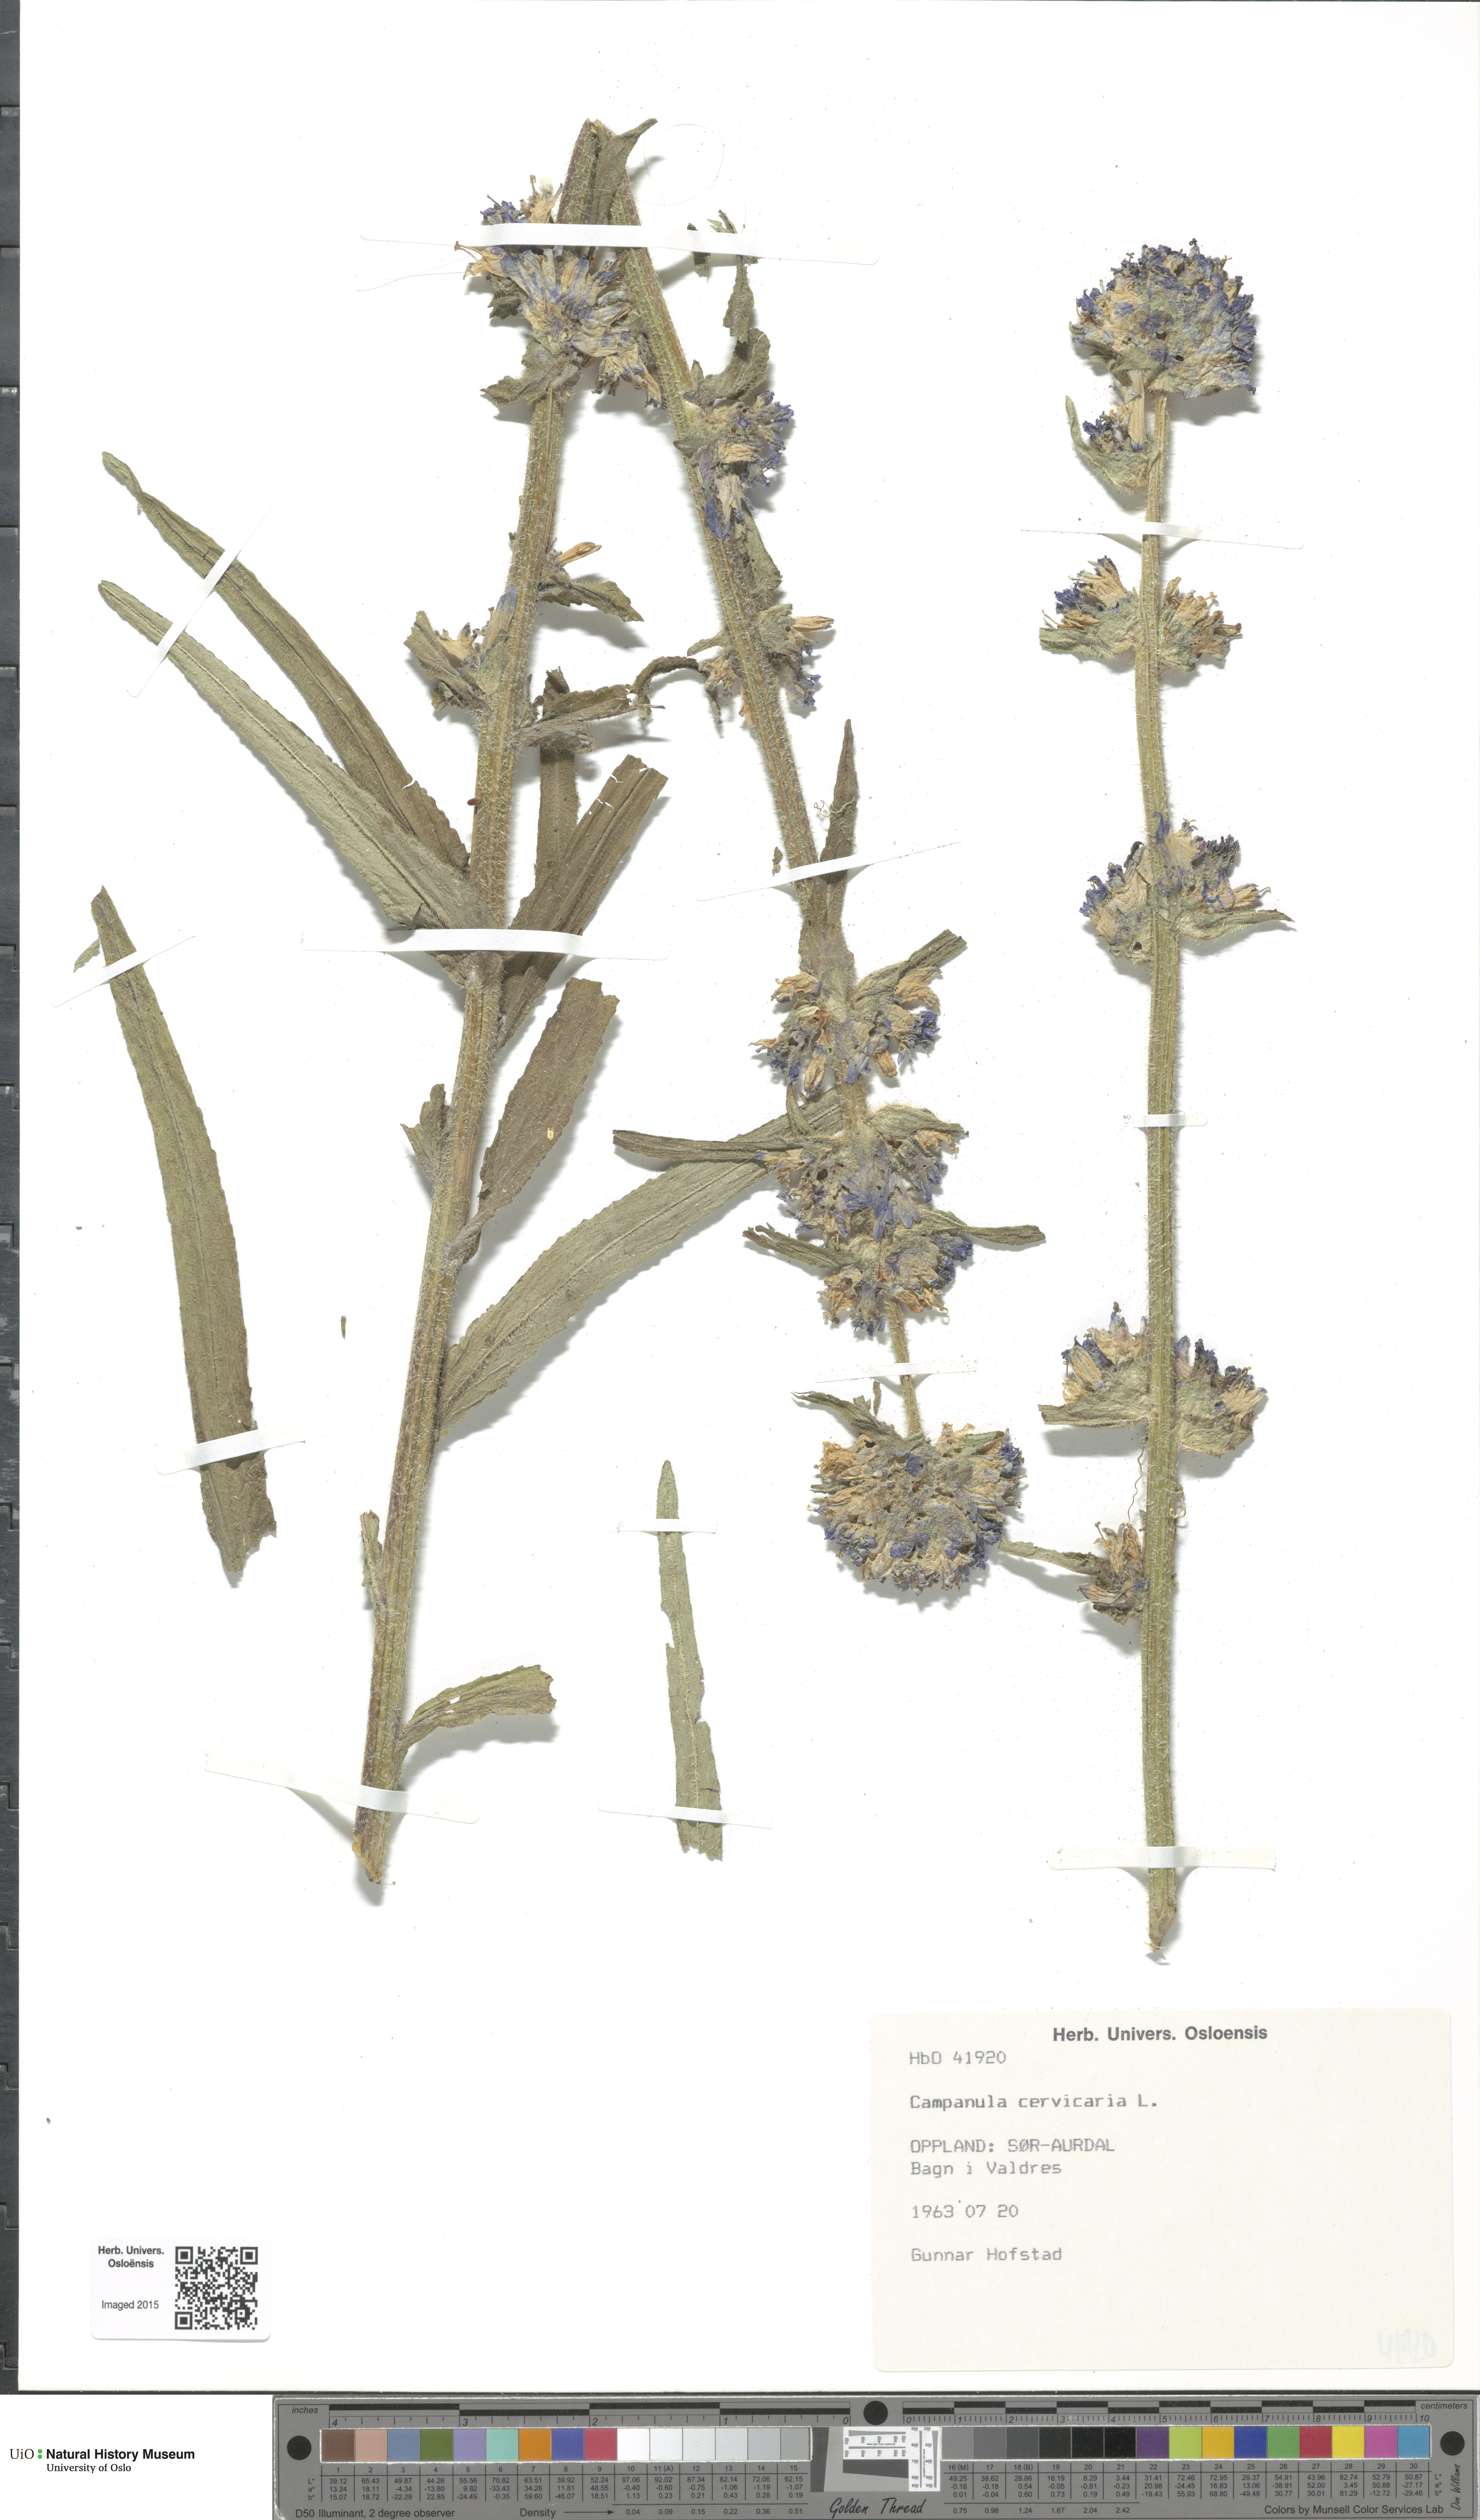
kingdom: Plantae
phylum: Tracheophyta
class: Magnoliopsida
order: Asterales
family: Campanulaceae
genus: Campanula
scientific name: Campanula cervicaria
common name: Bristly bellflower
